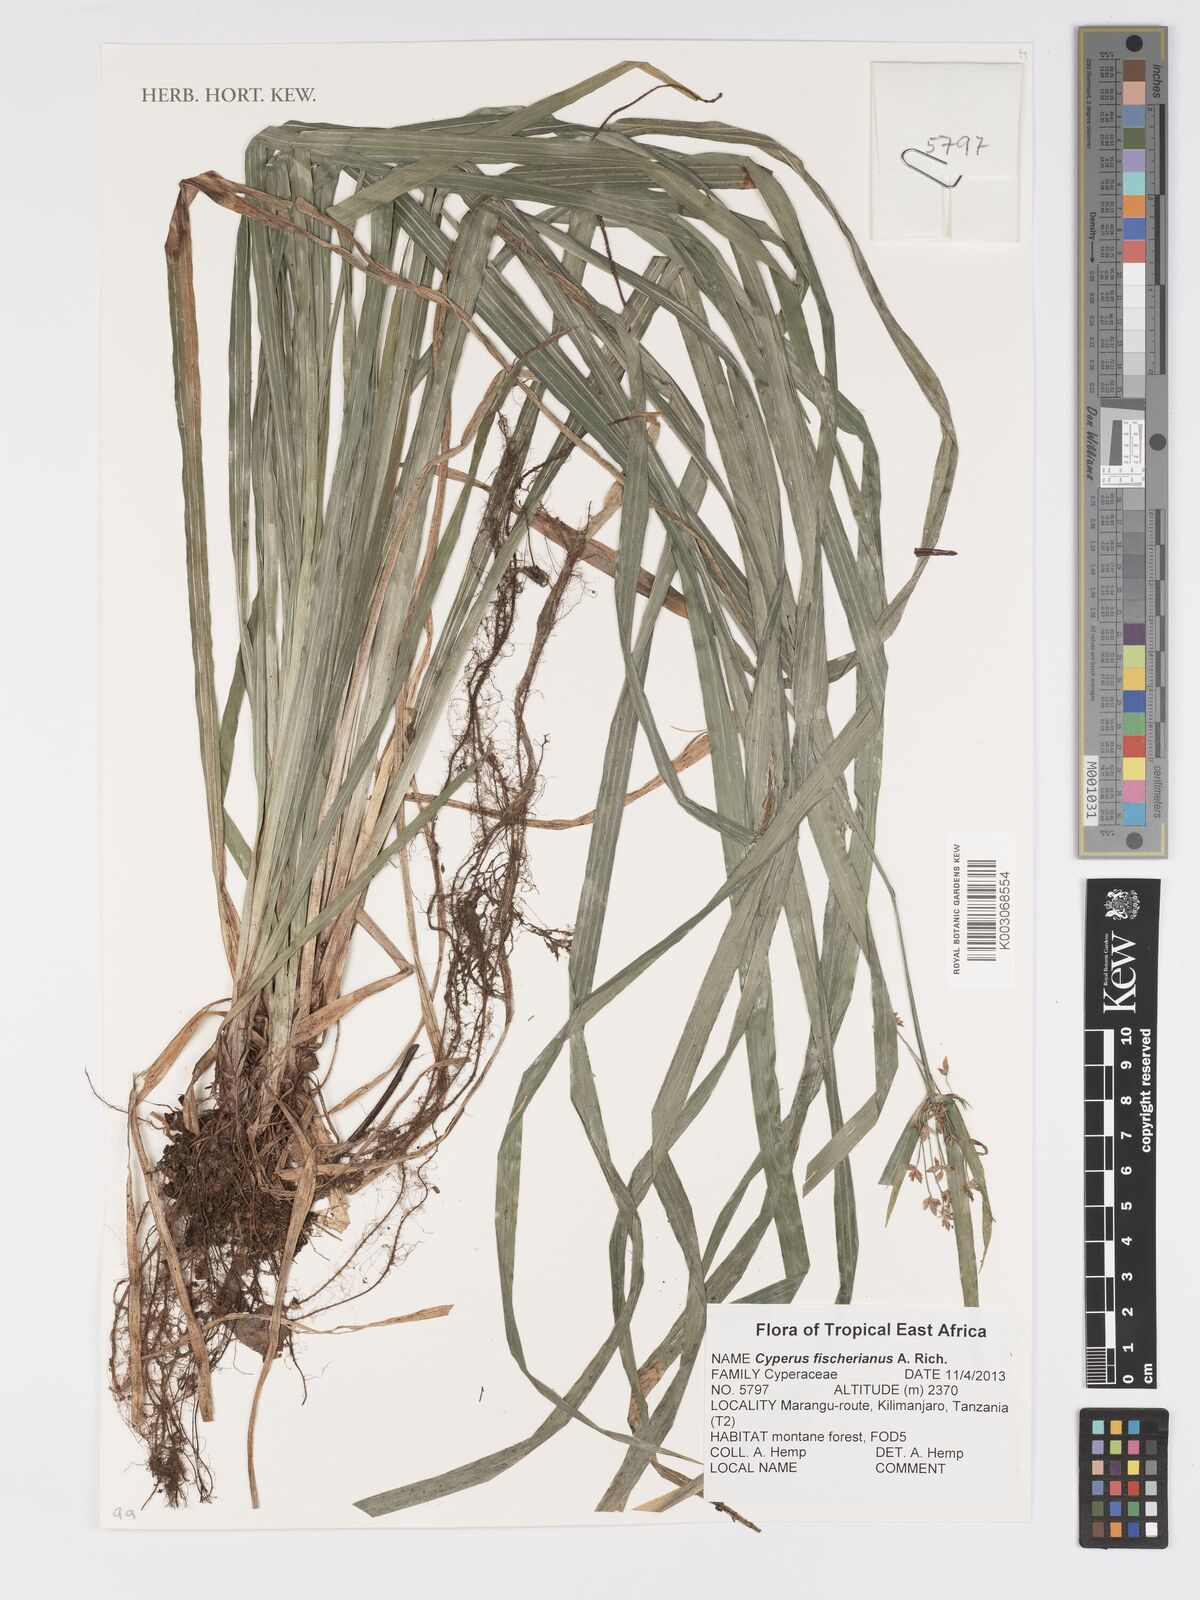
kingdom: Plantae
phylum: Tracheophyta
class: Liliopsida
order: Poales
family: Cyperaceae
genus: Cyperus
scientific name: Cyperus fischerianus
